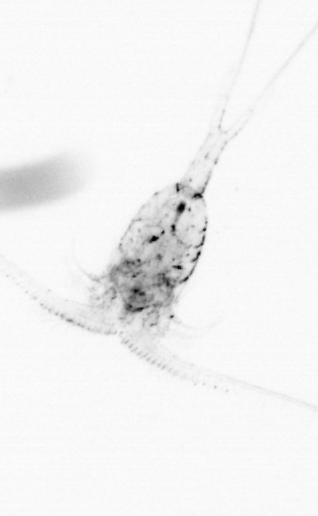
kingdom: Animalia
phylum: Arthropoda
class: Copepoda
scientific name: Copepoda
